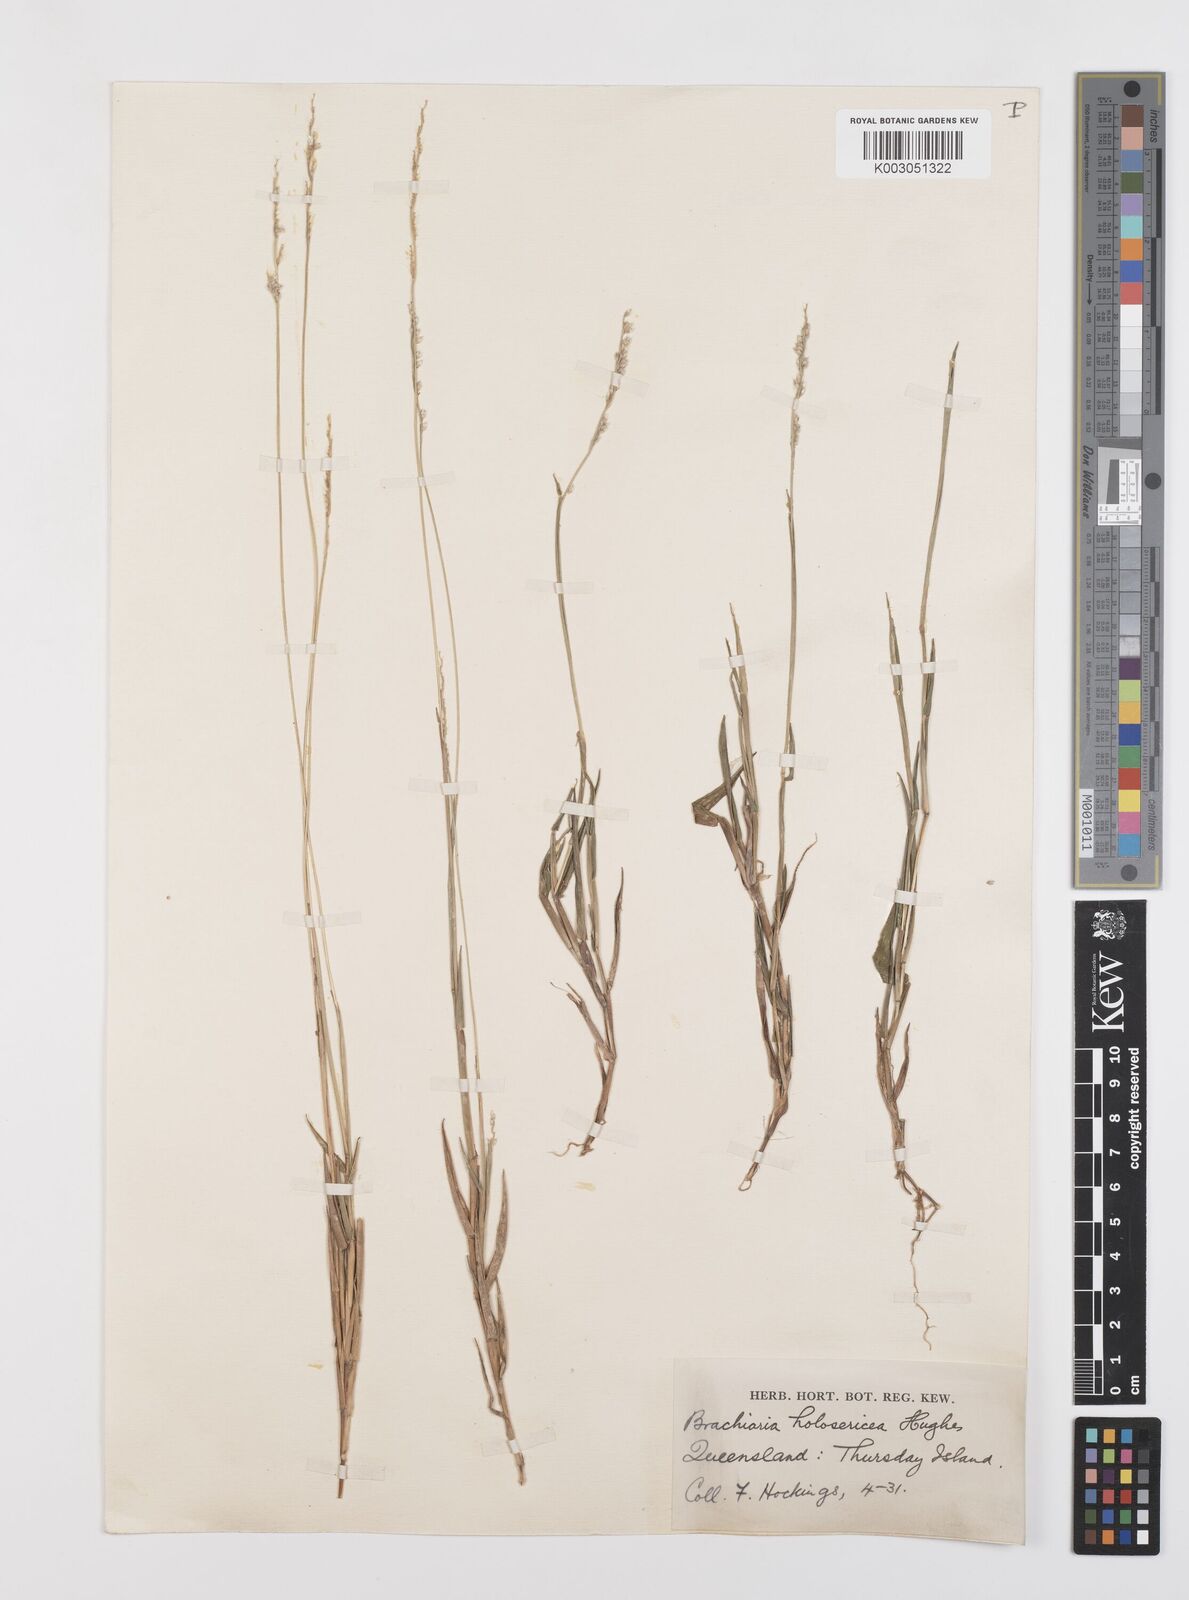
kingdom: Plantae
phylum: Tracheophyta
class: Liliopsida
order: Poales
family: Poaceae
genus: Urochloa
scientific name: Urochloa holosericea
